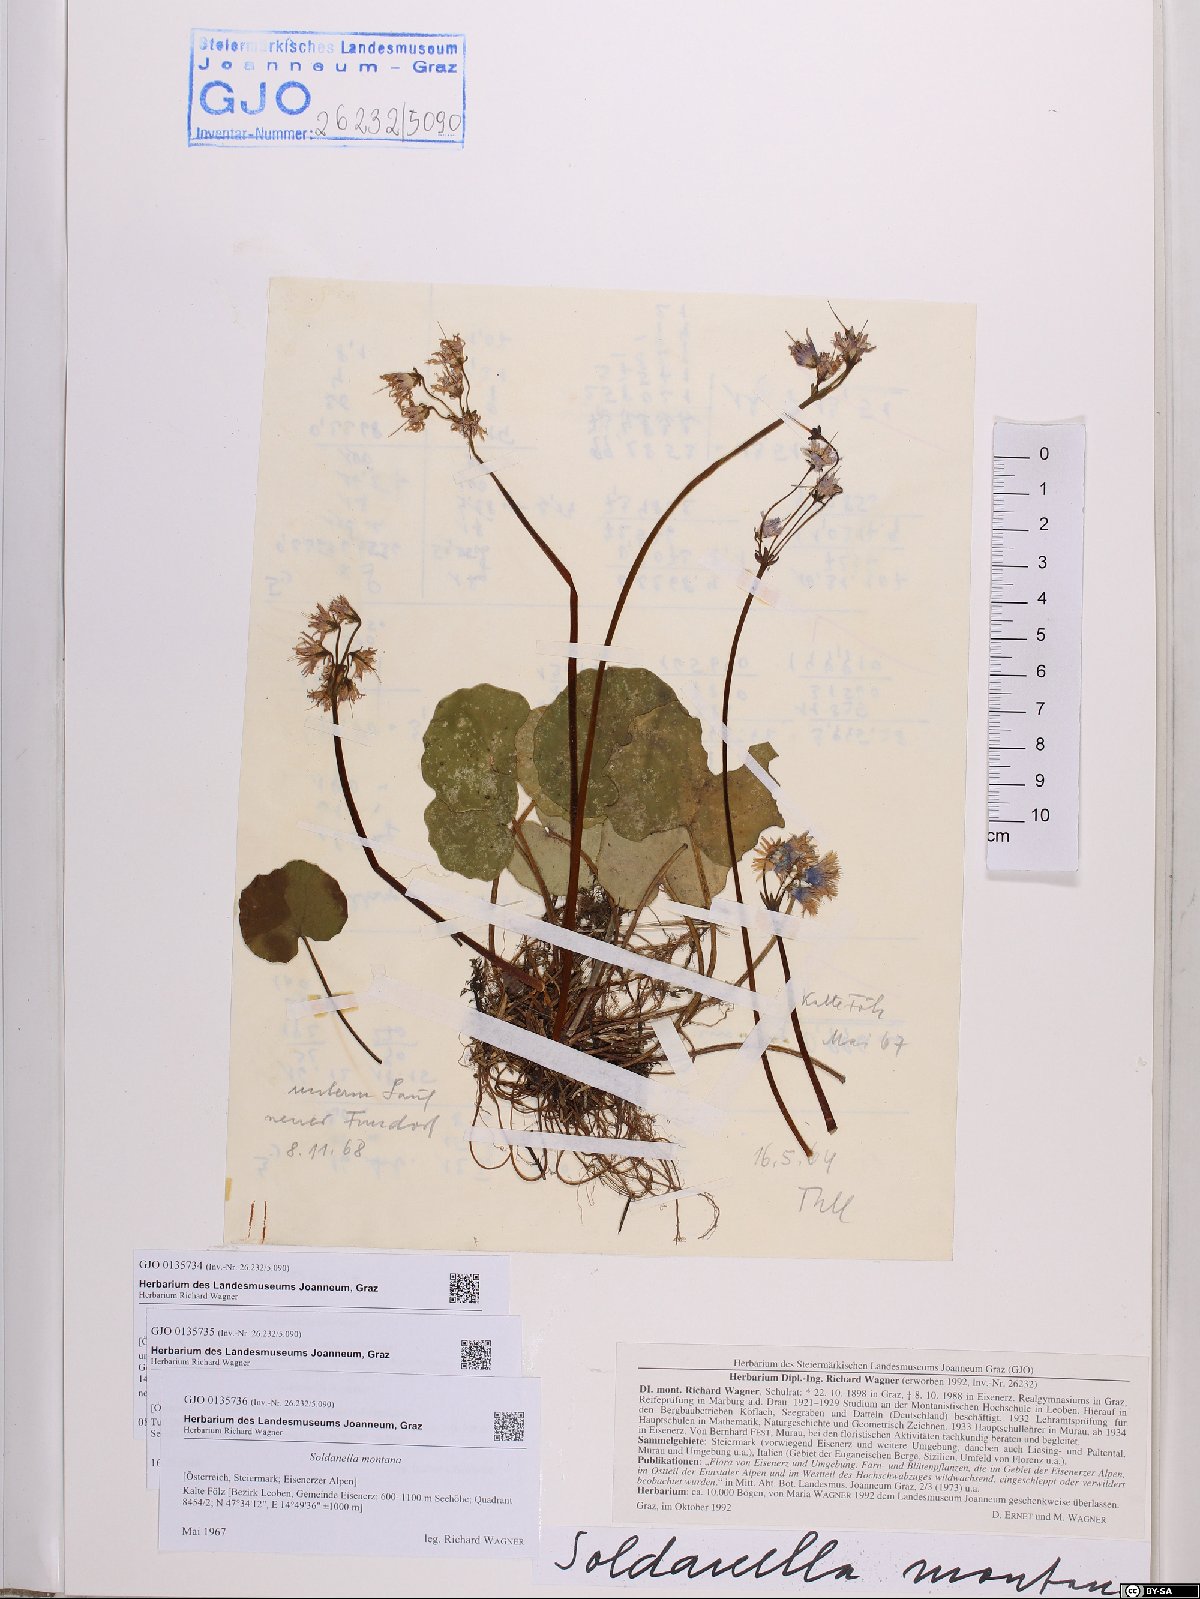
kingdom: Plantae
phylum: Tracheophyta
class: Magnoliopsida
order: Ericales
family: Primulaceae
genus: Soldanella
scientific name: Soldanella montana
